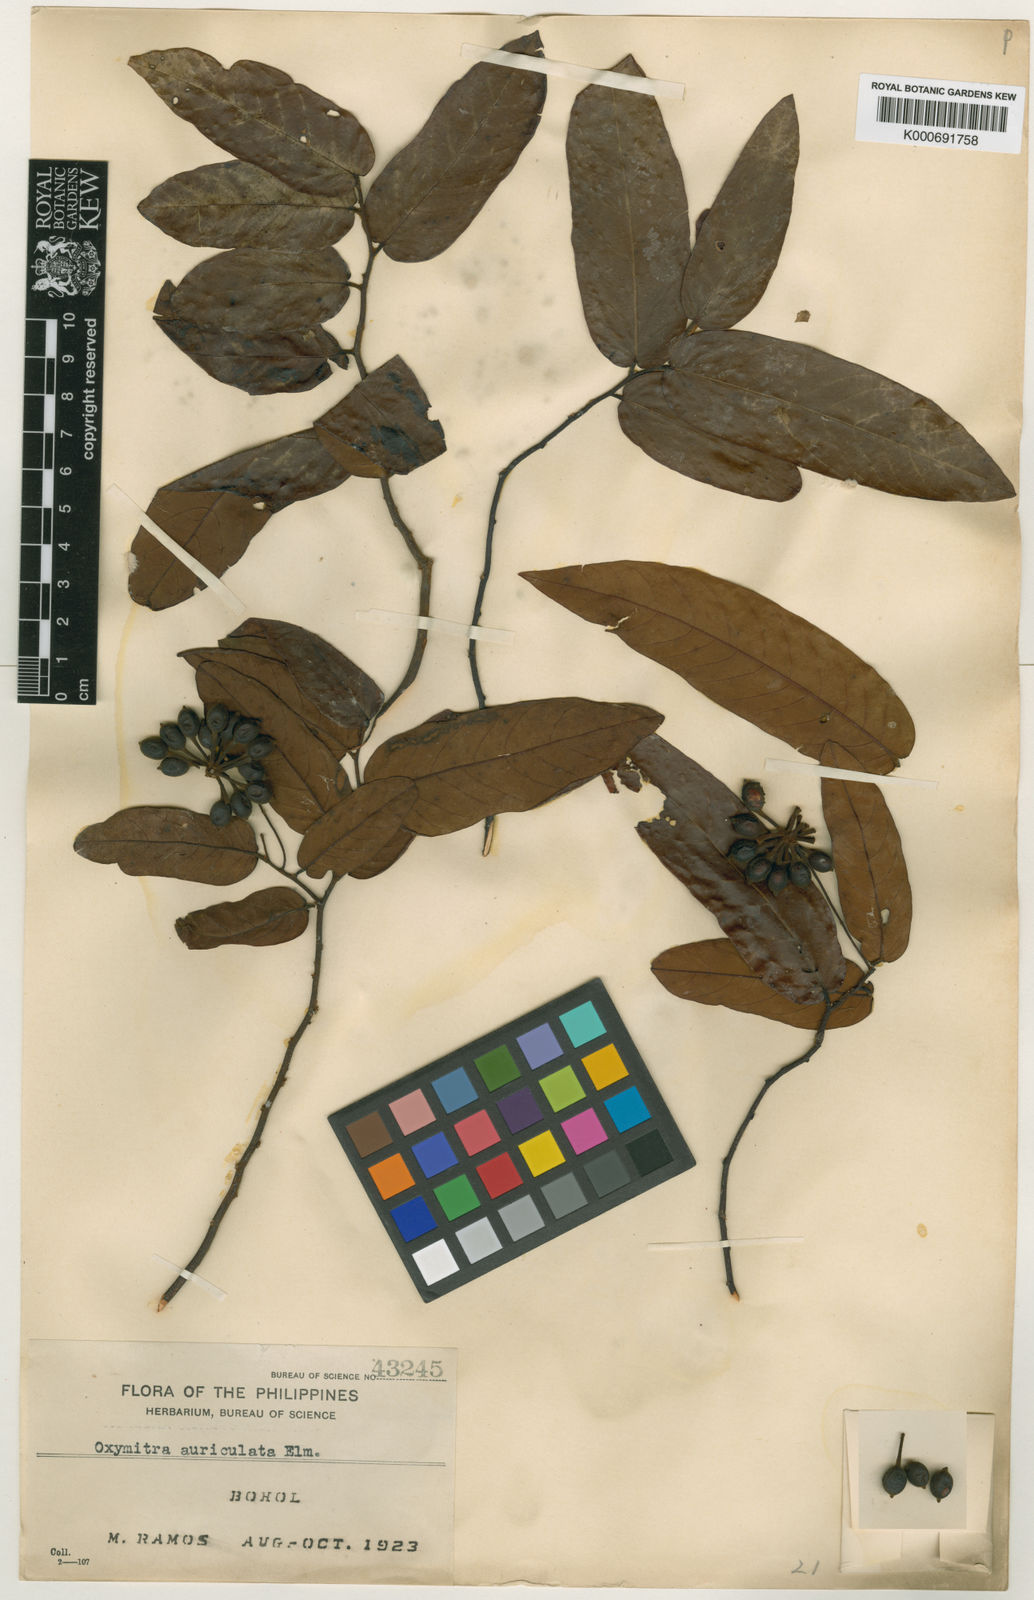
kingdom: Plantae
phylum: Tracheophyta
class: Magnoliopsida
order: Magnoliales
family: Annonaceae
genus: Friesodielsia
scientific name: Friesodielsia auriculata
